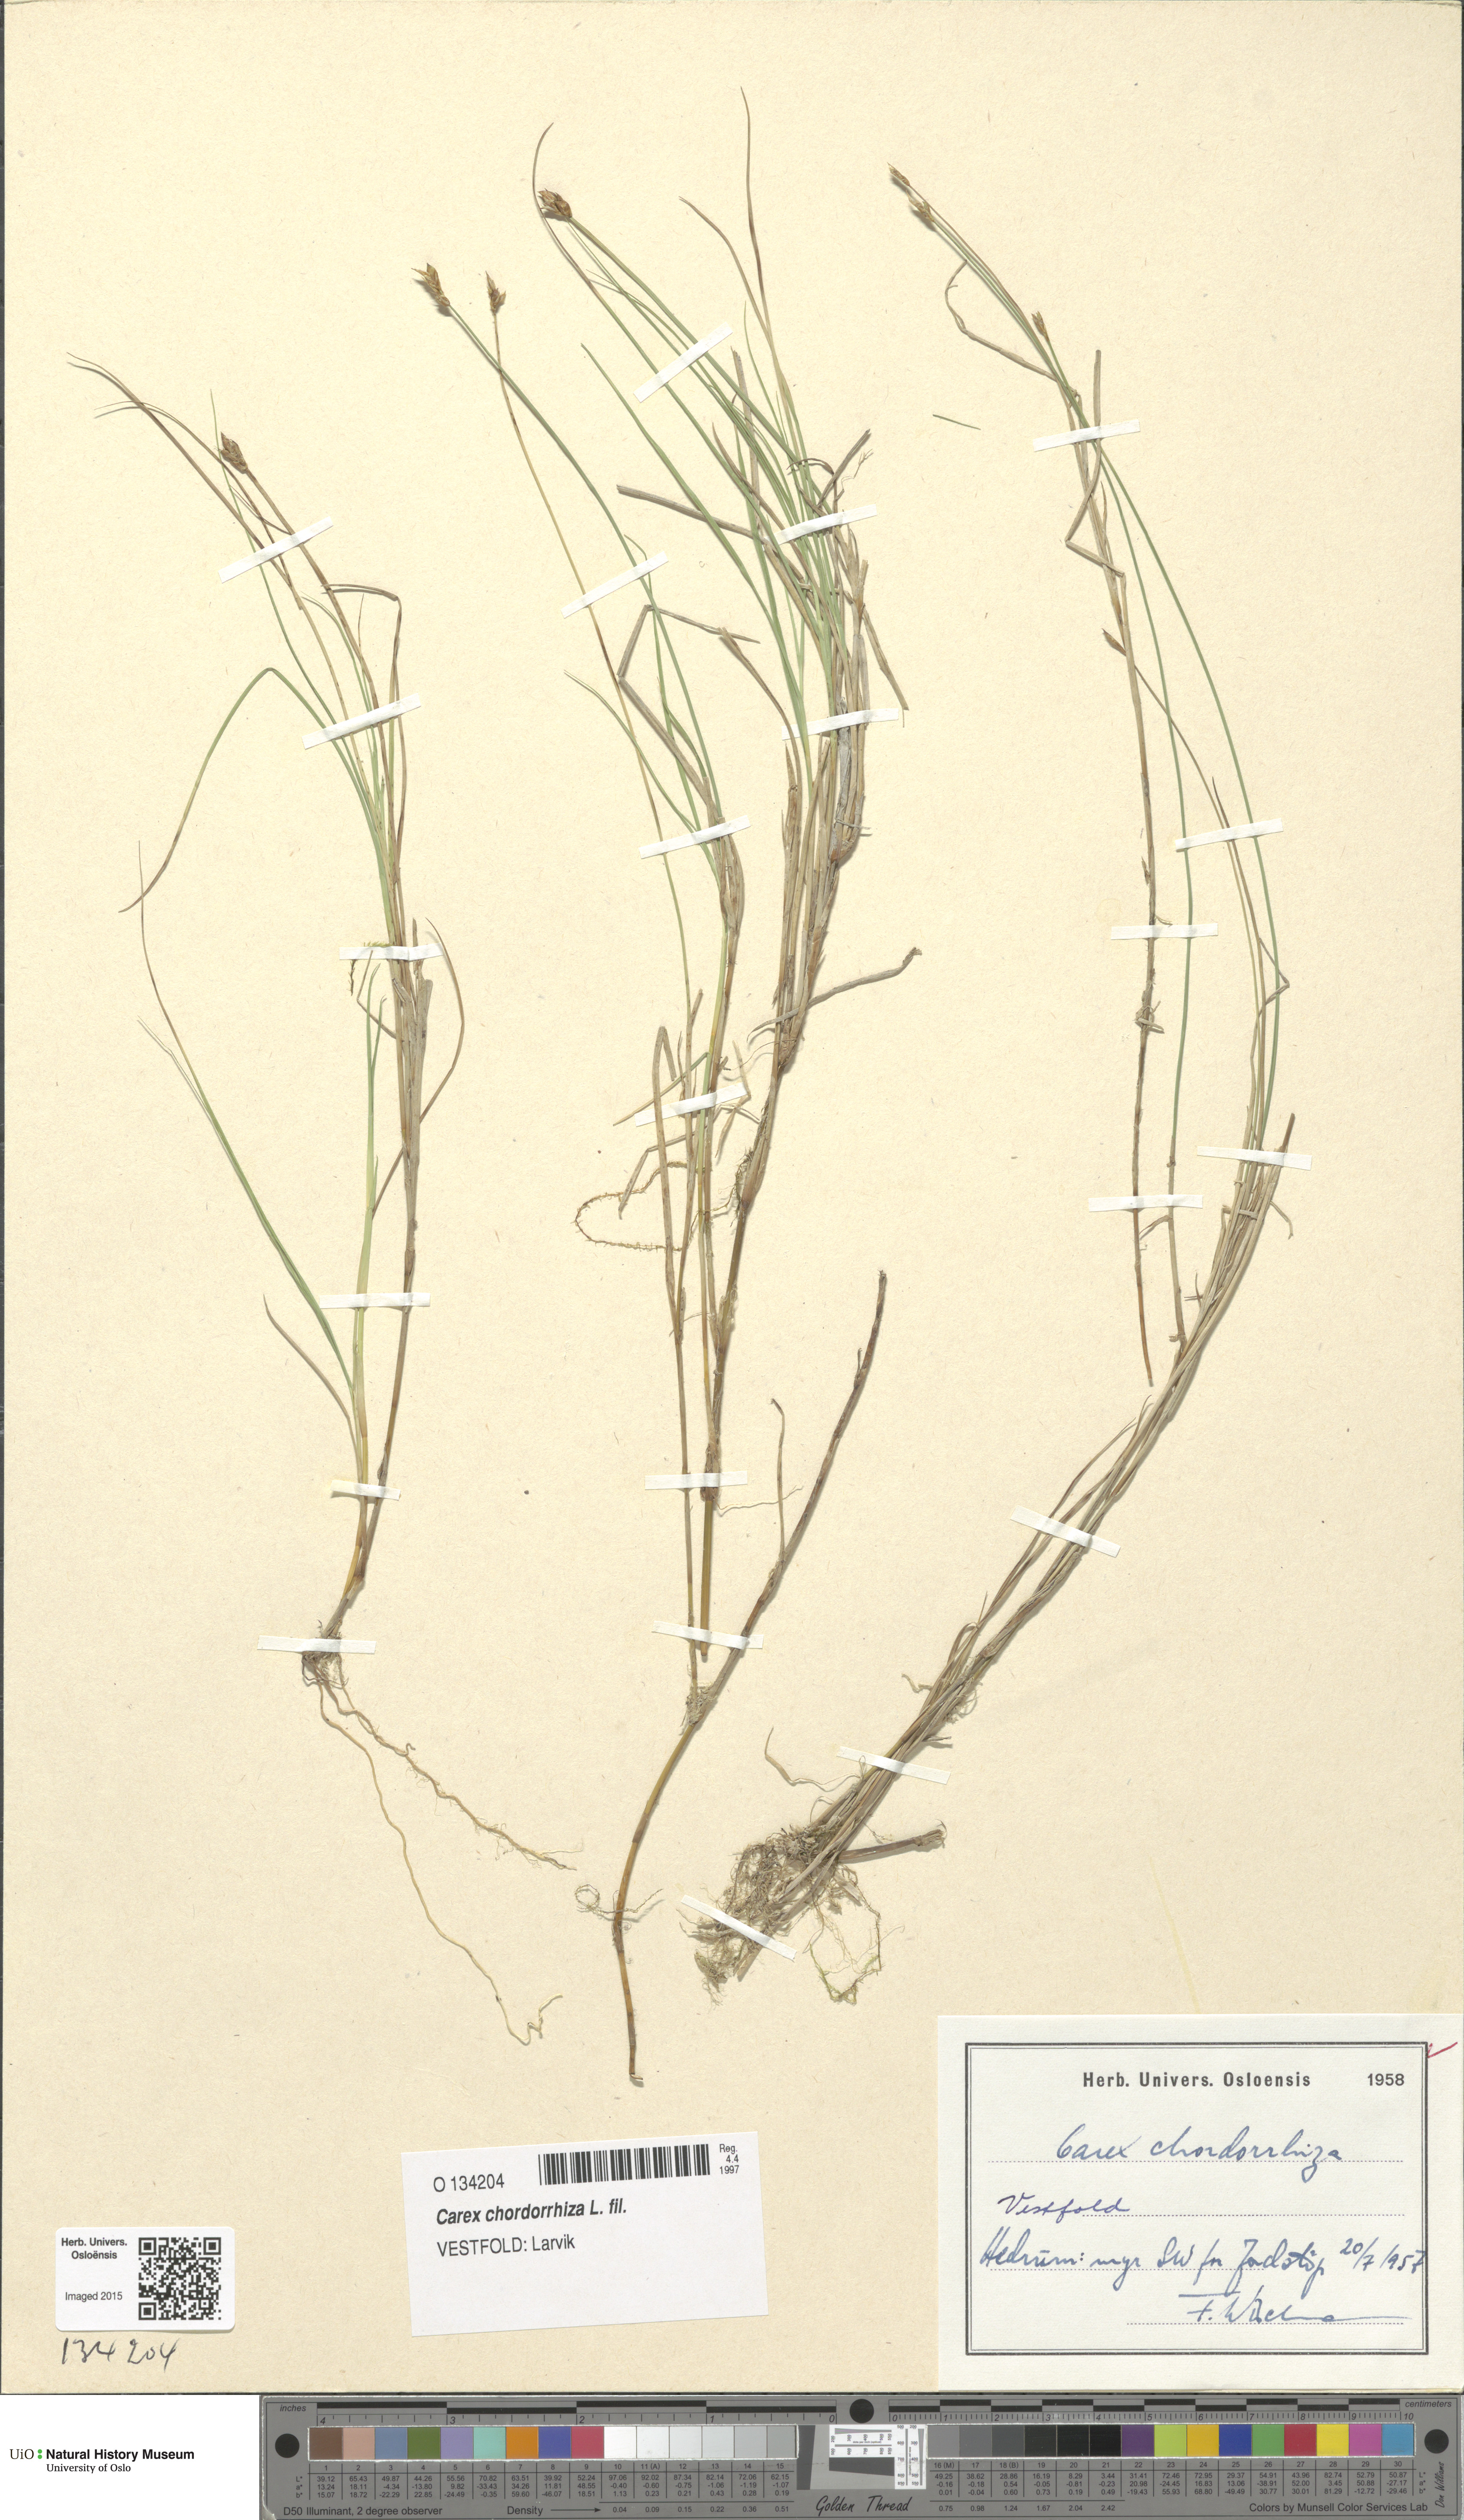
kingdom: Plantae
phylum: Tracheophyta
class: Liliopsida
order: Poales
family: Cyperaceae
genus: Carex
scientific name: Carex chordorrhiza
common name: String sedge
